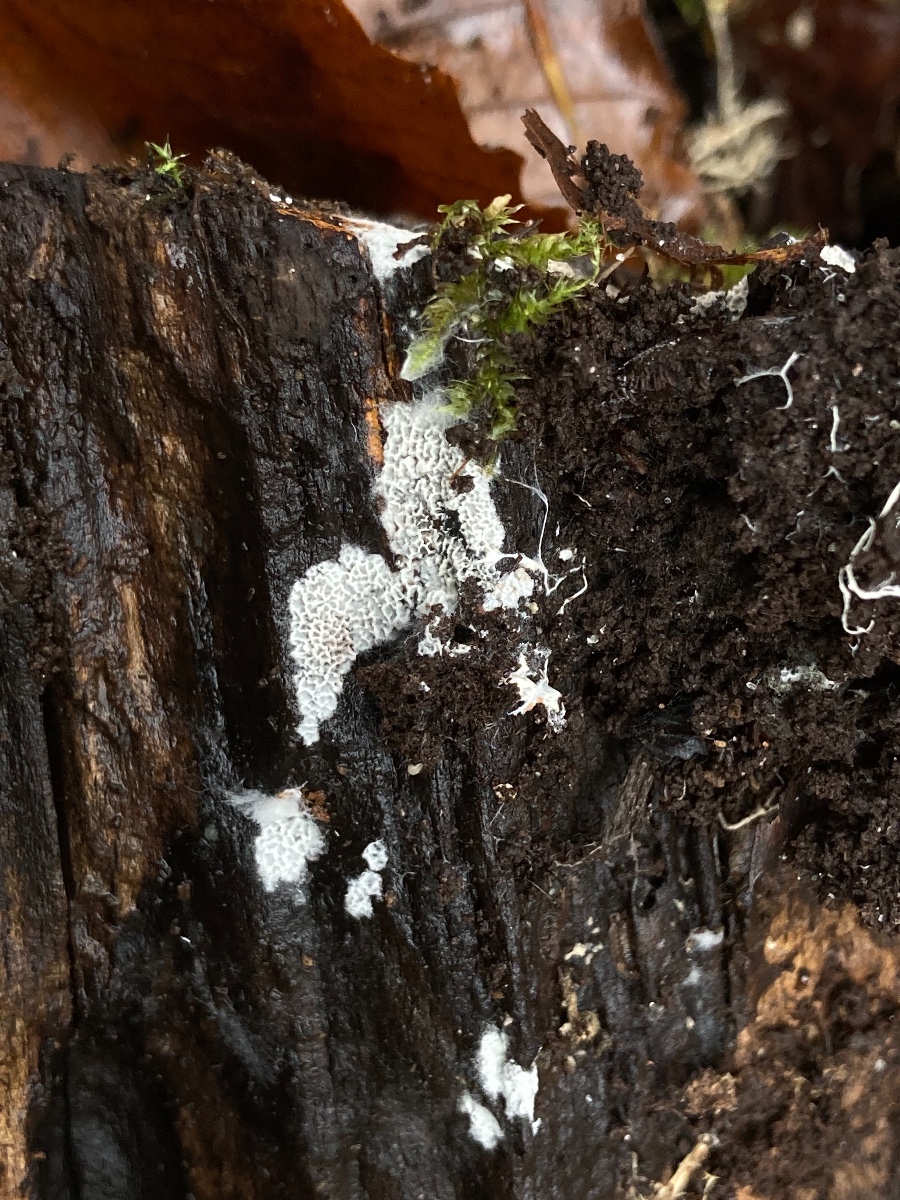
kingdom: Fungi
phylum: Basidiomycota
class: Agaricomycetes
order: Polyporales
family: Irpicaceae
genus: Ceriporia
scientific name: Ceriporia reticulata
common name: netagtig voksporesvamp
